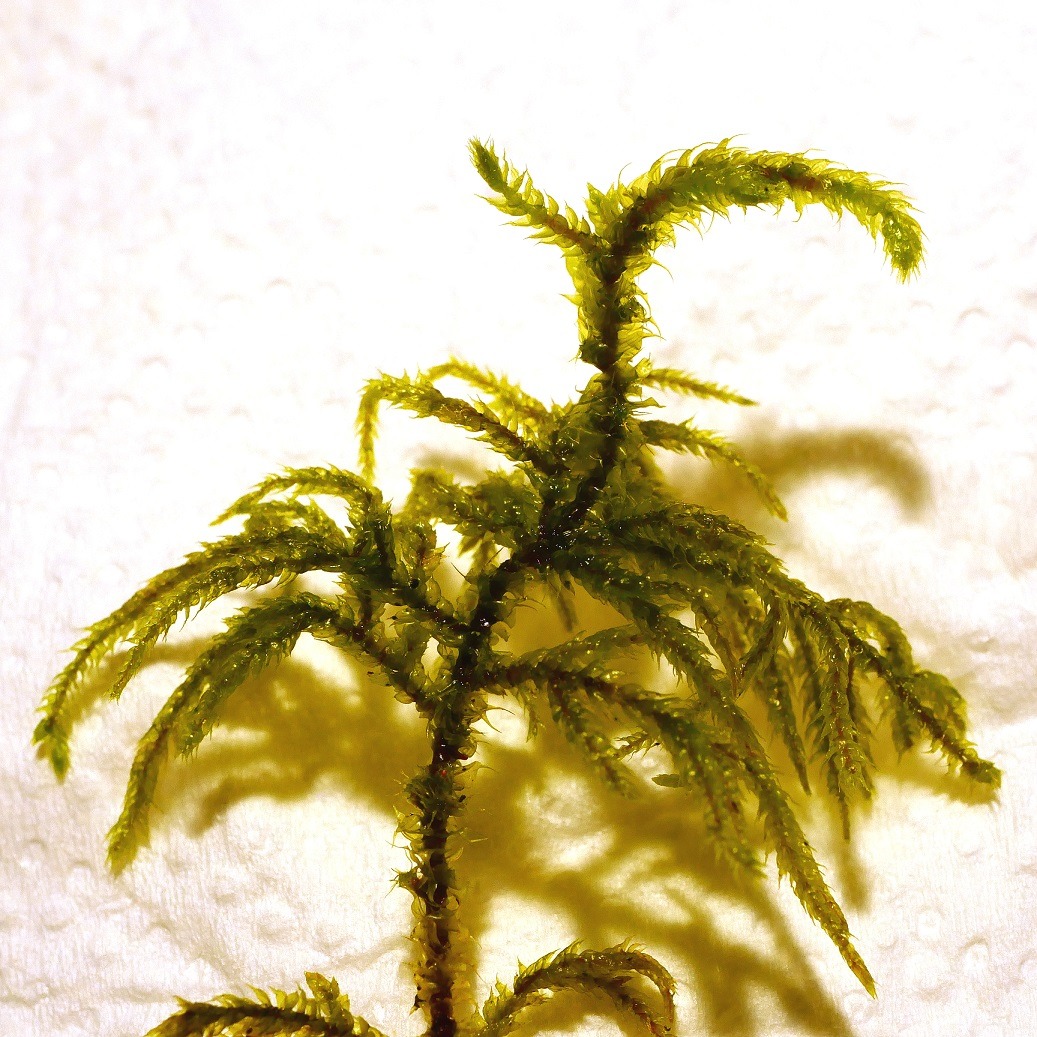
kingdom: Plantae
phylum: Bryophyta
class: Bryopsida
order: Hypnales
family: Hylocomiaceae
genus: Loeskeobryum
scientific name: Loeskeobryum brevirostre
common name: Åben etagemos
